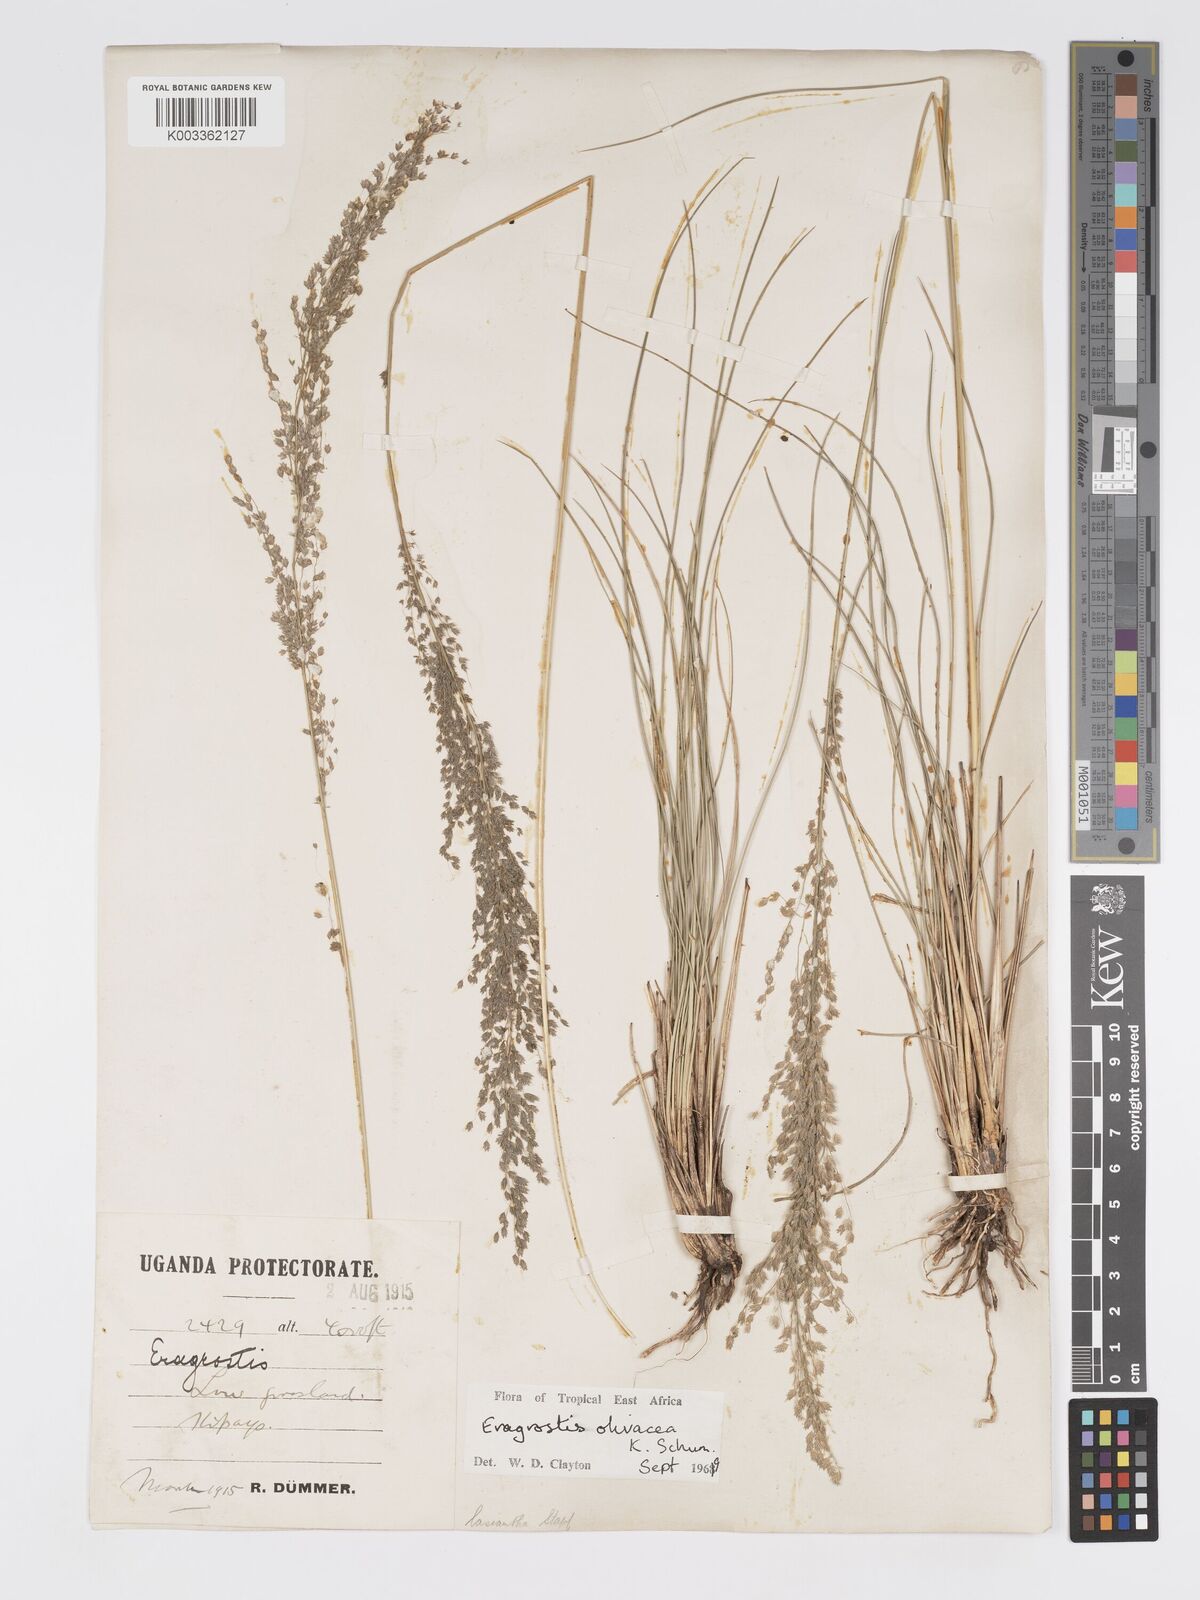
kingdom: Plantae
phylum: Tracheophyta
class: Liliopsida
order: Poales
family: Poaceae
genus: Eragrostis
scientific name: Eragrostis olivacea
